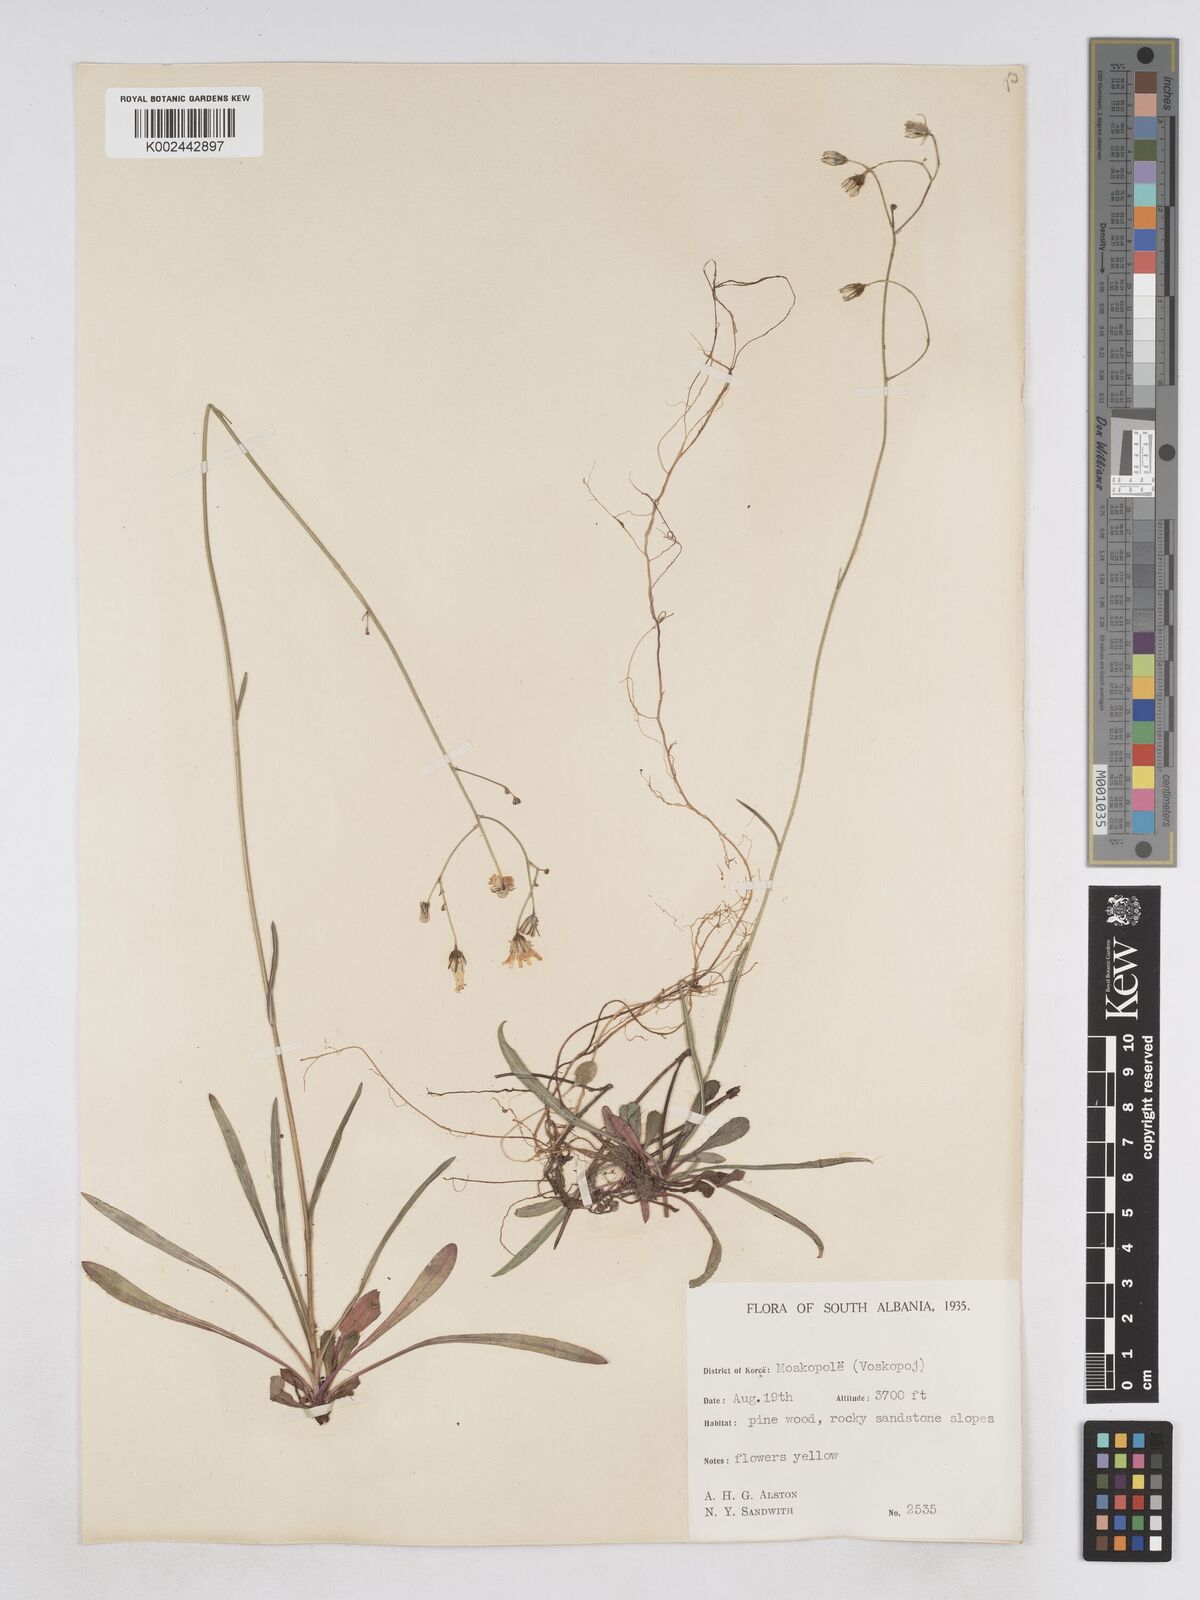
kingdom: Plantae
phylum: Tracheophyta
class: Magnoliopsida
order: Asterales
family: Asteraceae
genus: Pilosella
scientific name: Pilosella pavichii
